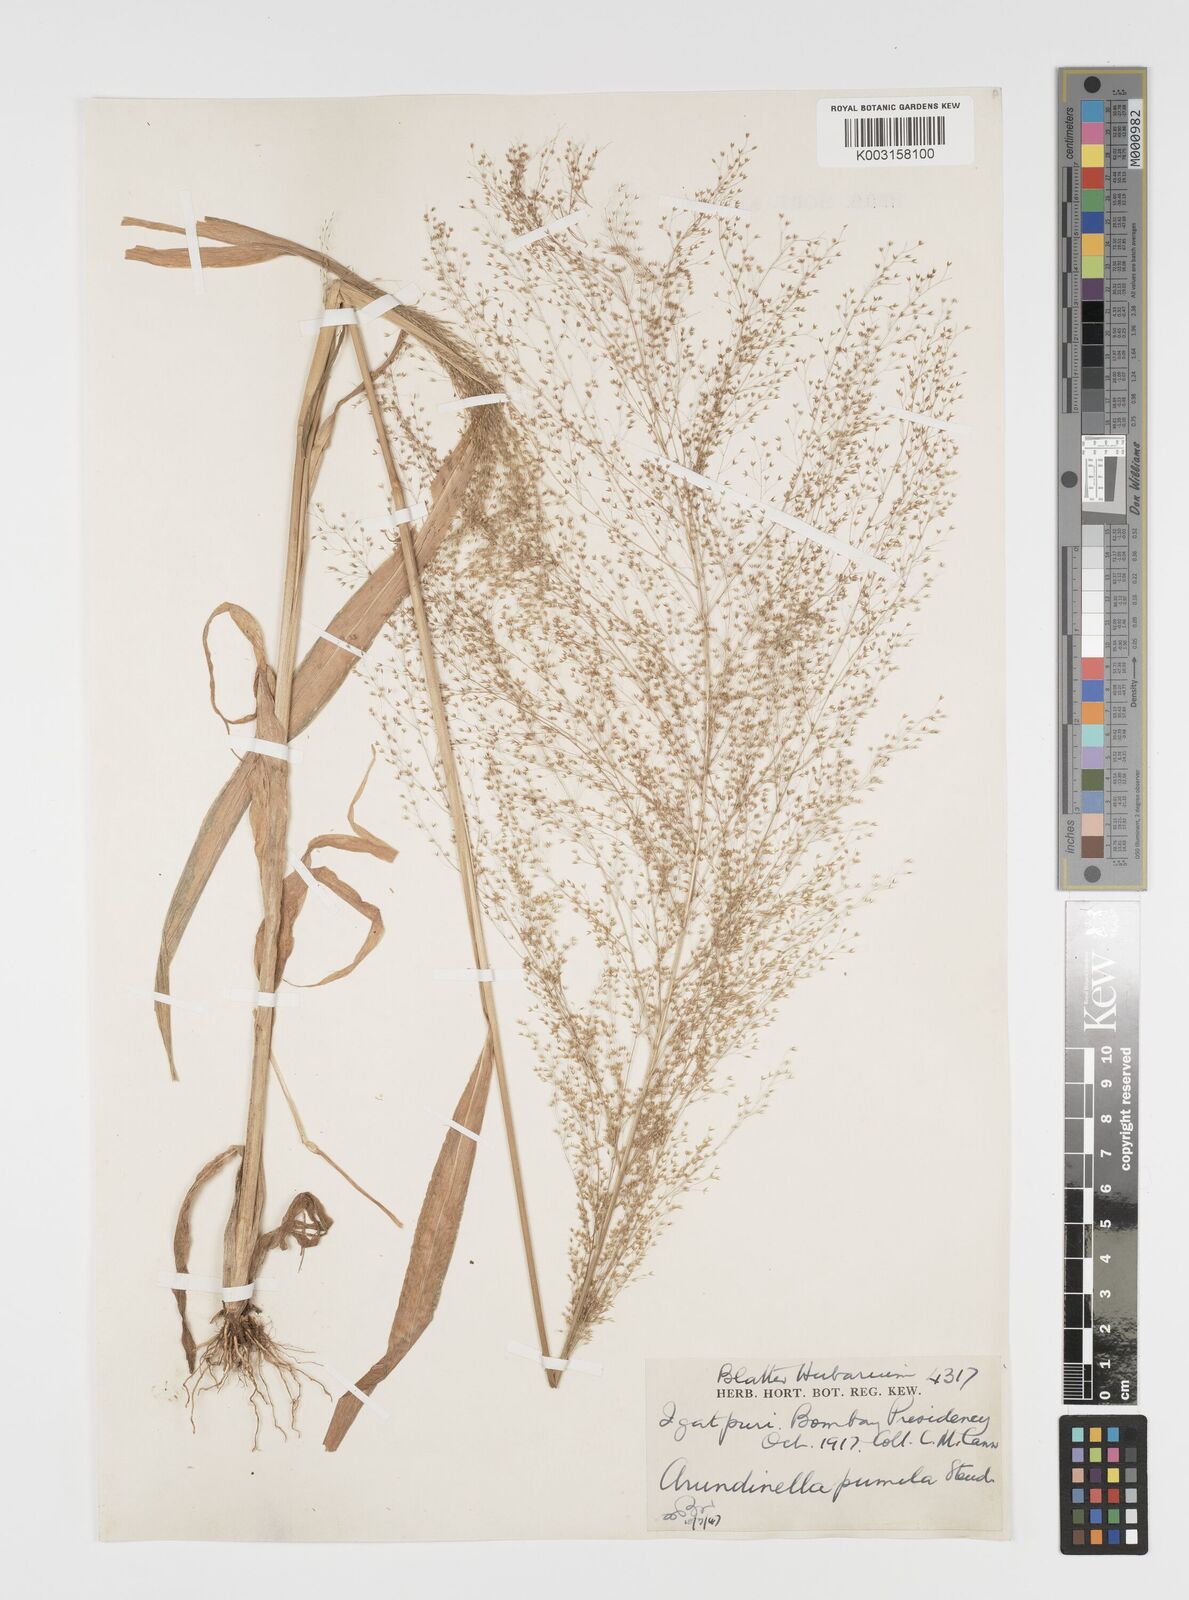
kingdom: Plantae
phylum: Tracheophyta
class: Liliopsida
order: Poales
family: Poaceae
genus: Arundinella
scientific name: Arundinella pumila
